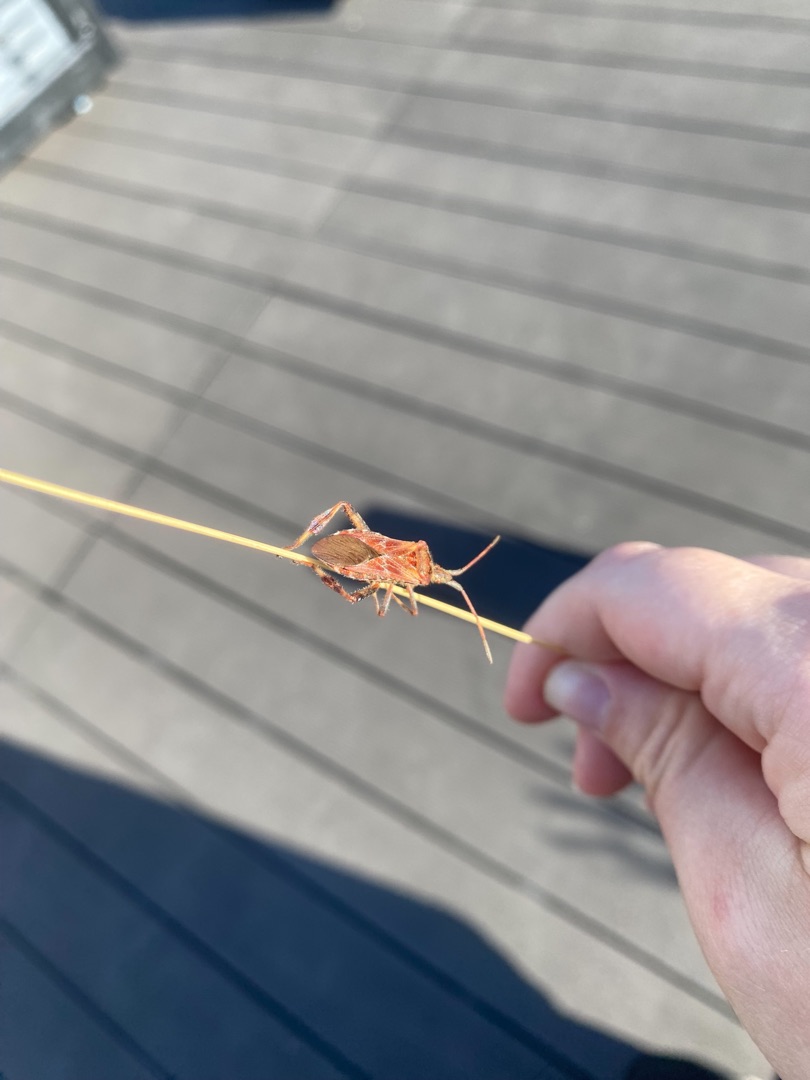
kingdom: Animalia
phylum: Arthropoda
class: Insecta
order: Hemiptera
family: Coreidae
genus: Leptoglossus
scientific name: Leptoglossus occidentalis
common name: Amerikansk fyrretæge
